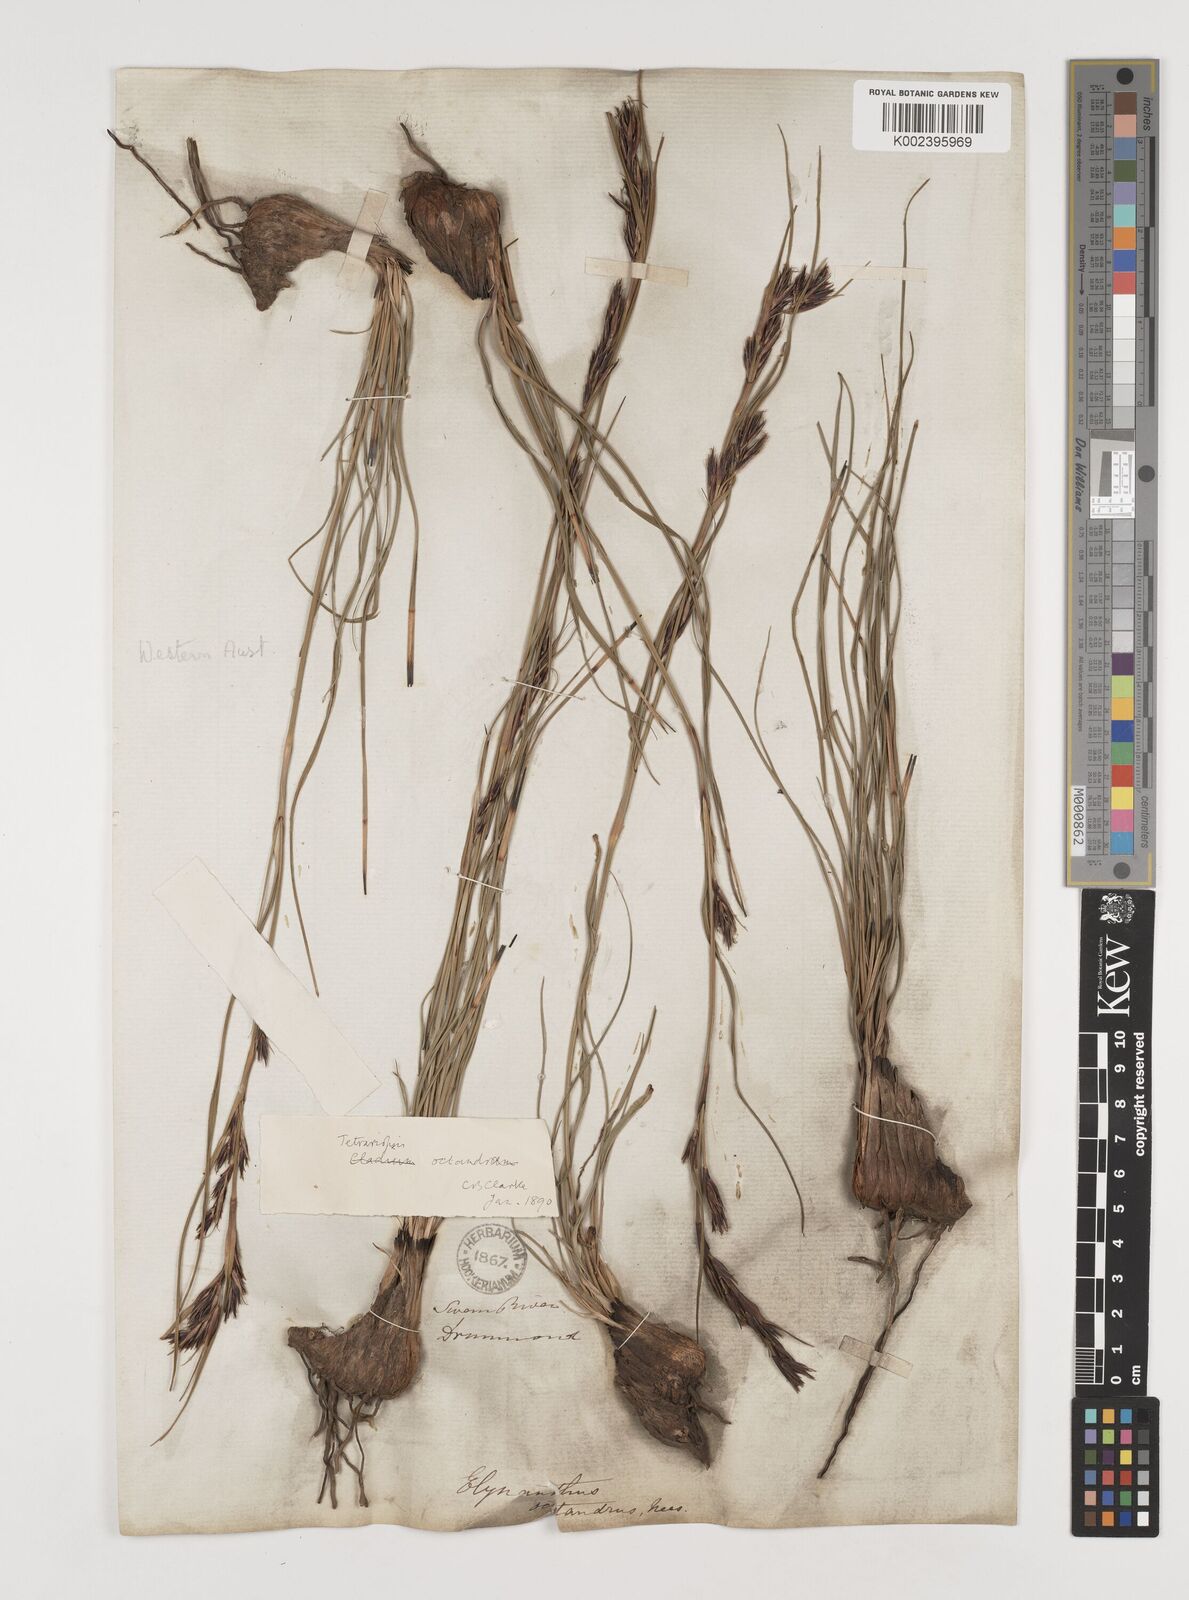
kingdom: Plantae
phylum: Tracheophyta
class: Liliopsida
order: Poales
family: Cyperaceae
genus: Tetraria
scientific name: Tetraria octandra
